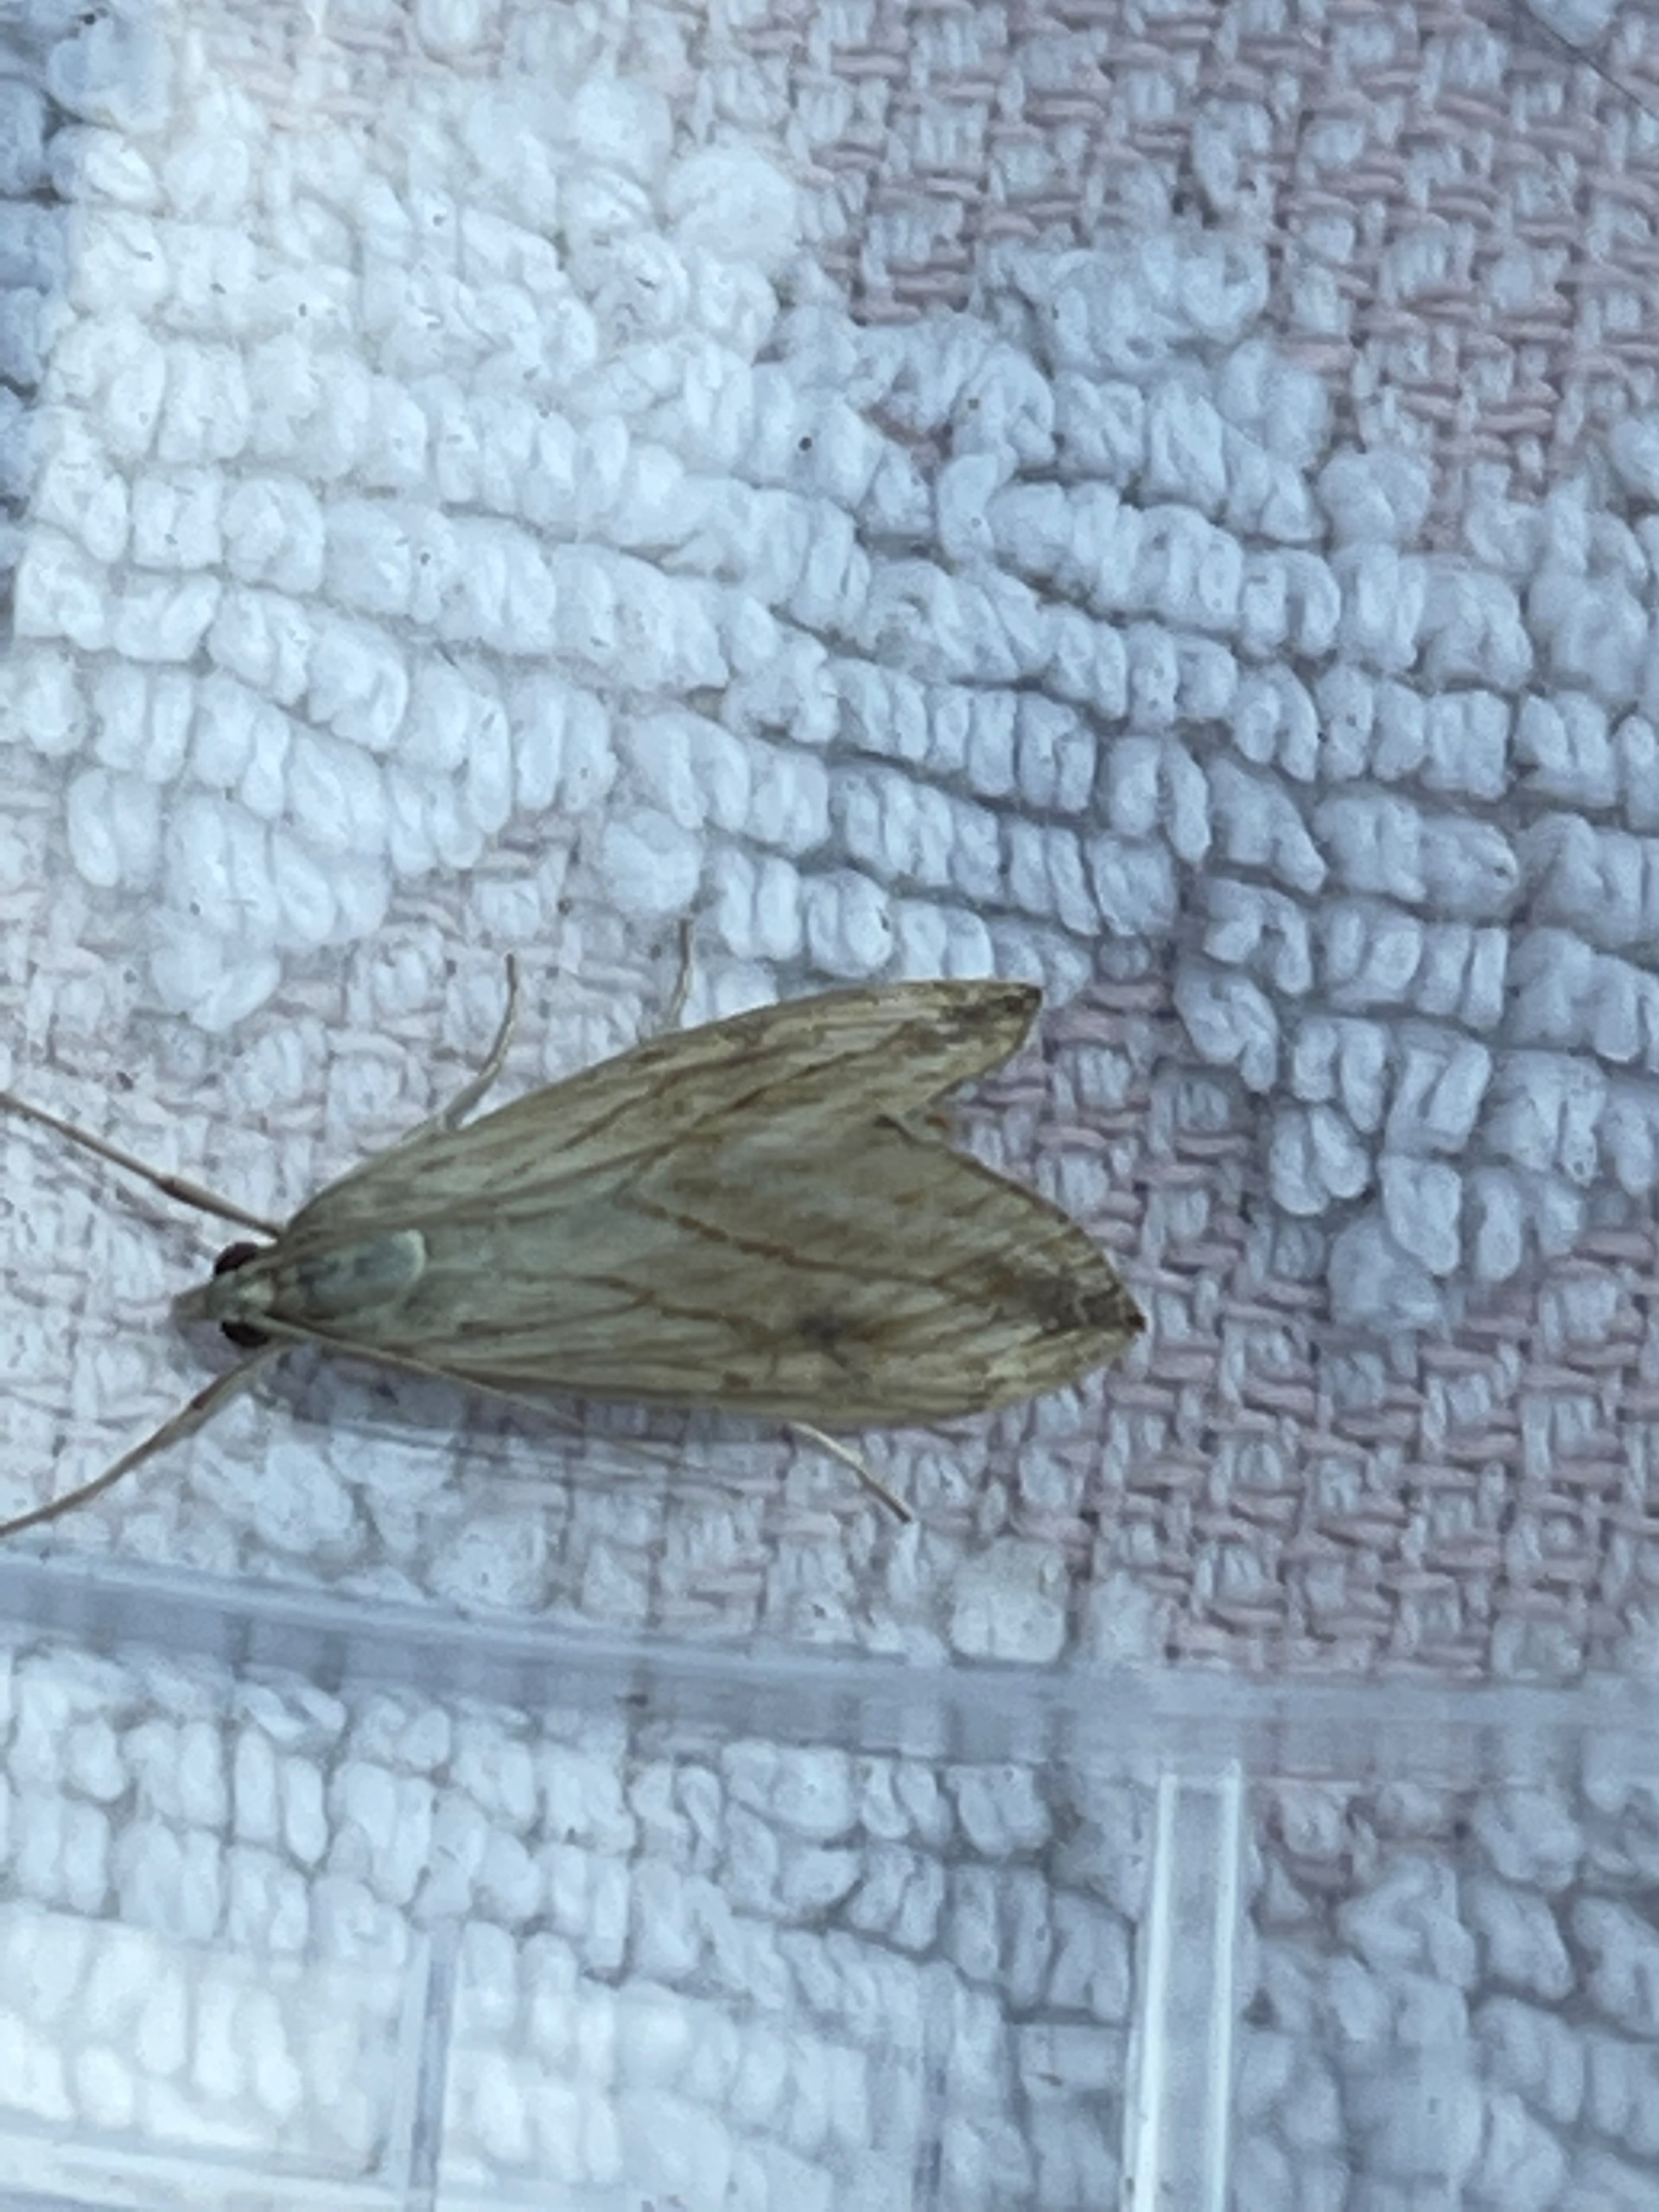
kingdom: Animalia
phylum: Arthropoda
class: Insecta
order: Lepidoptera
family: Crambidae
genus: Evergestis
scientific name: Evergestis forficalis
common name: Kålhalvmøl
